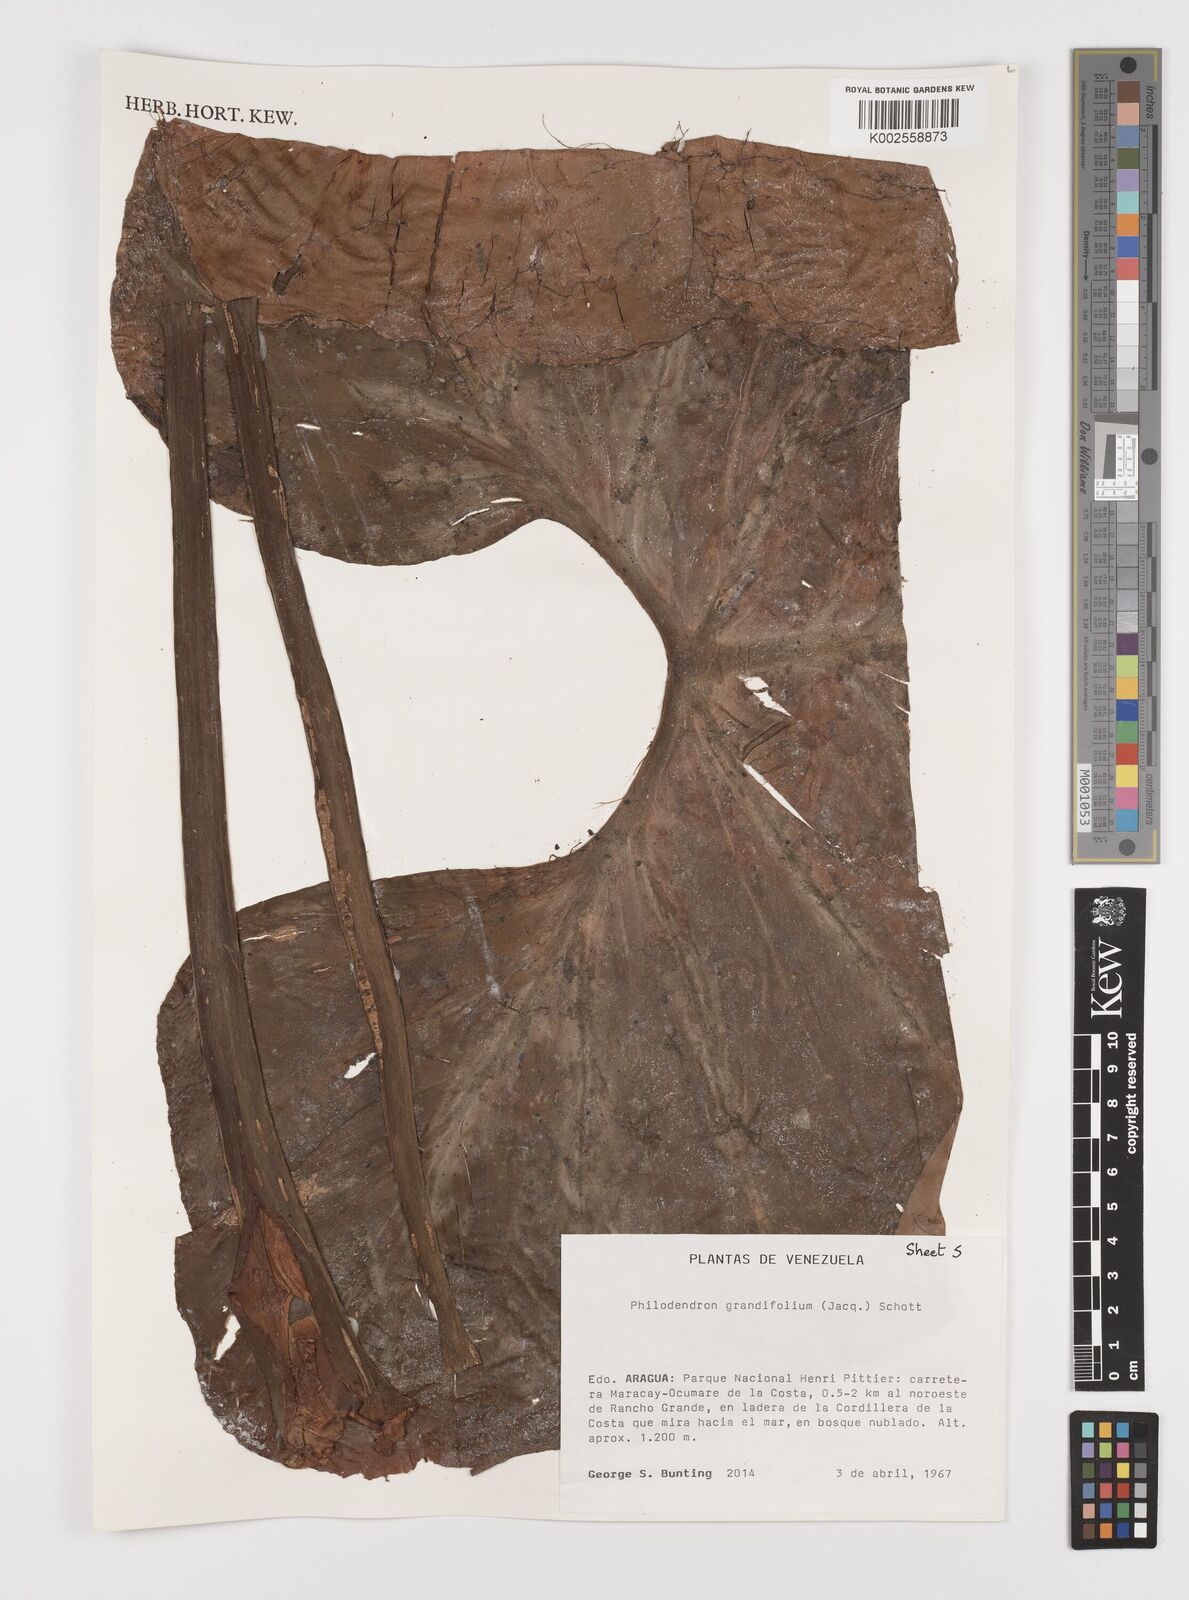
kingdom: Plantae
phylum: Tracheophyta
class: Liliopsida
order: Alismatales
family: Araceae
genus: Philodendron
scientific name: Philodendron grandifolium
